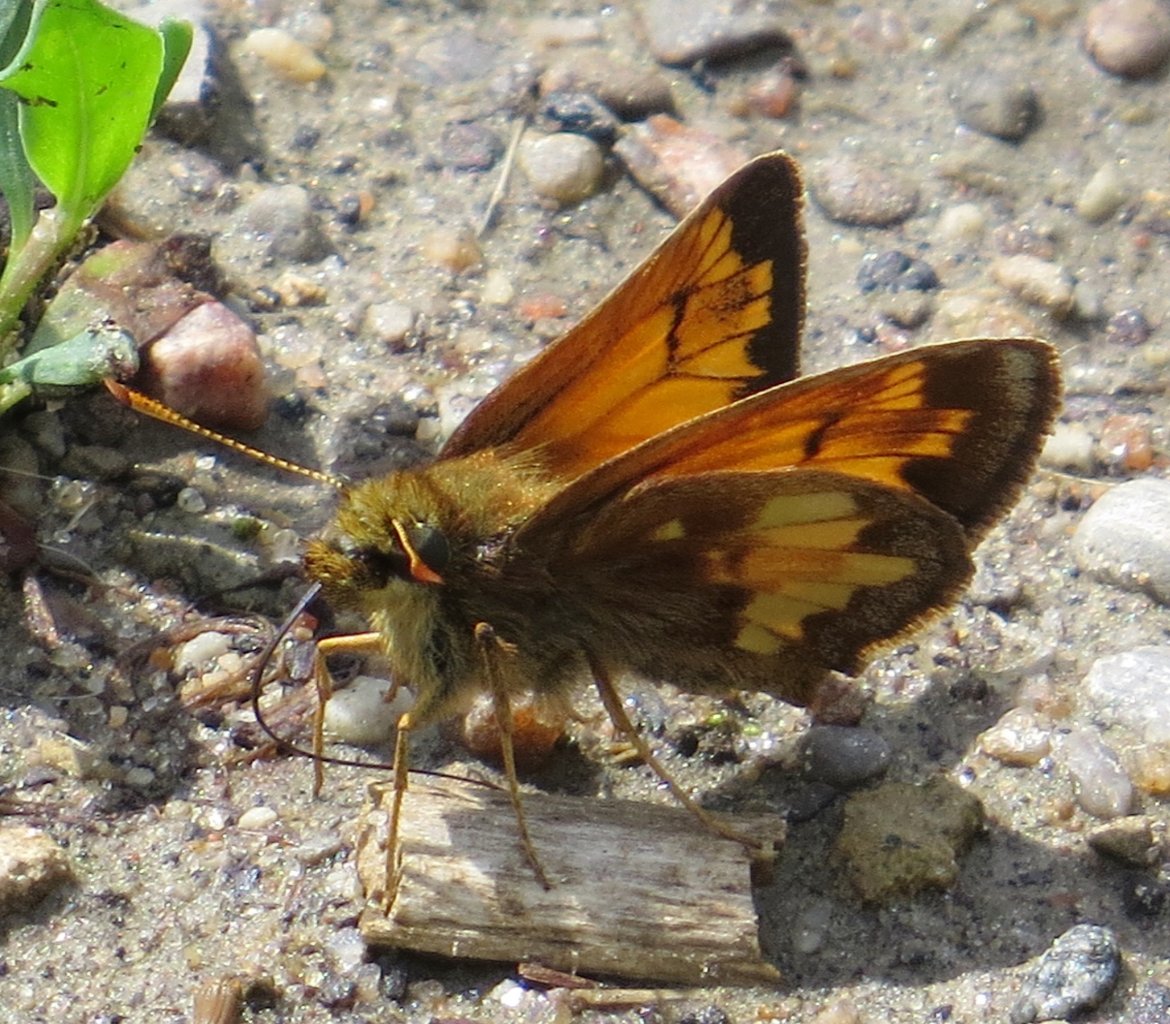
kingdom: Animalia
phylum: Arthropoda
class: Insecta
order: Lepidoptera
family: Hesperiidae
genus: Lon
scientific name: Lon hobomok
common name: Hobomok Skipper
